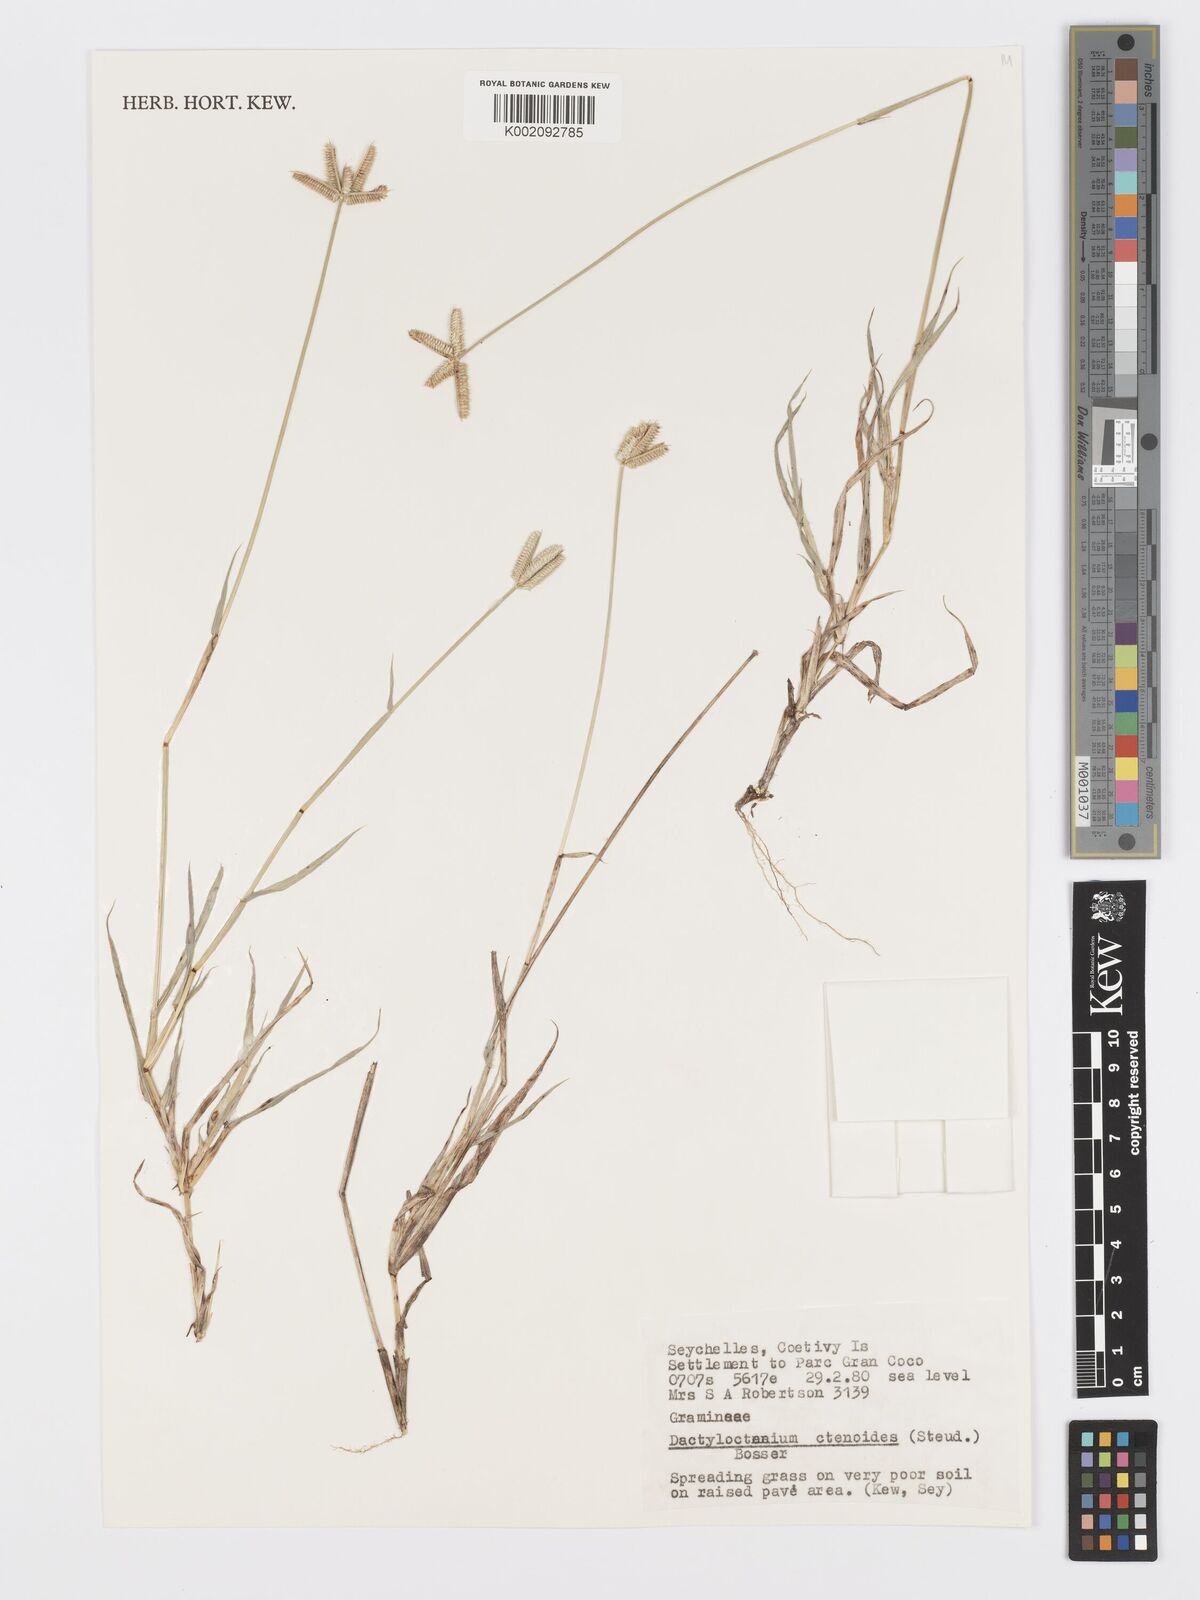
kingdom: Plantae
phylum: Tracheophyta
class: Liliopsida
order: Poales
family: Poaceae
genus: Dactyloctenium
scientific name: Dactyloctenium ctenoides
